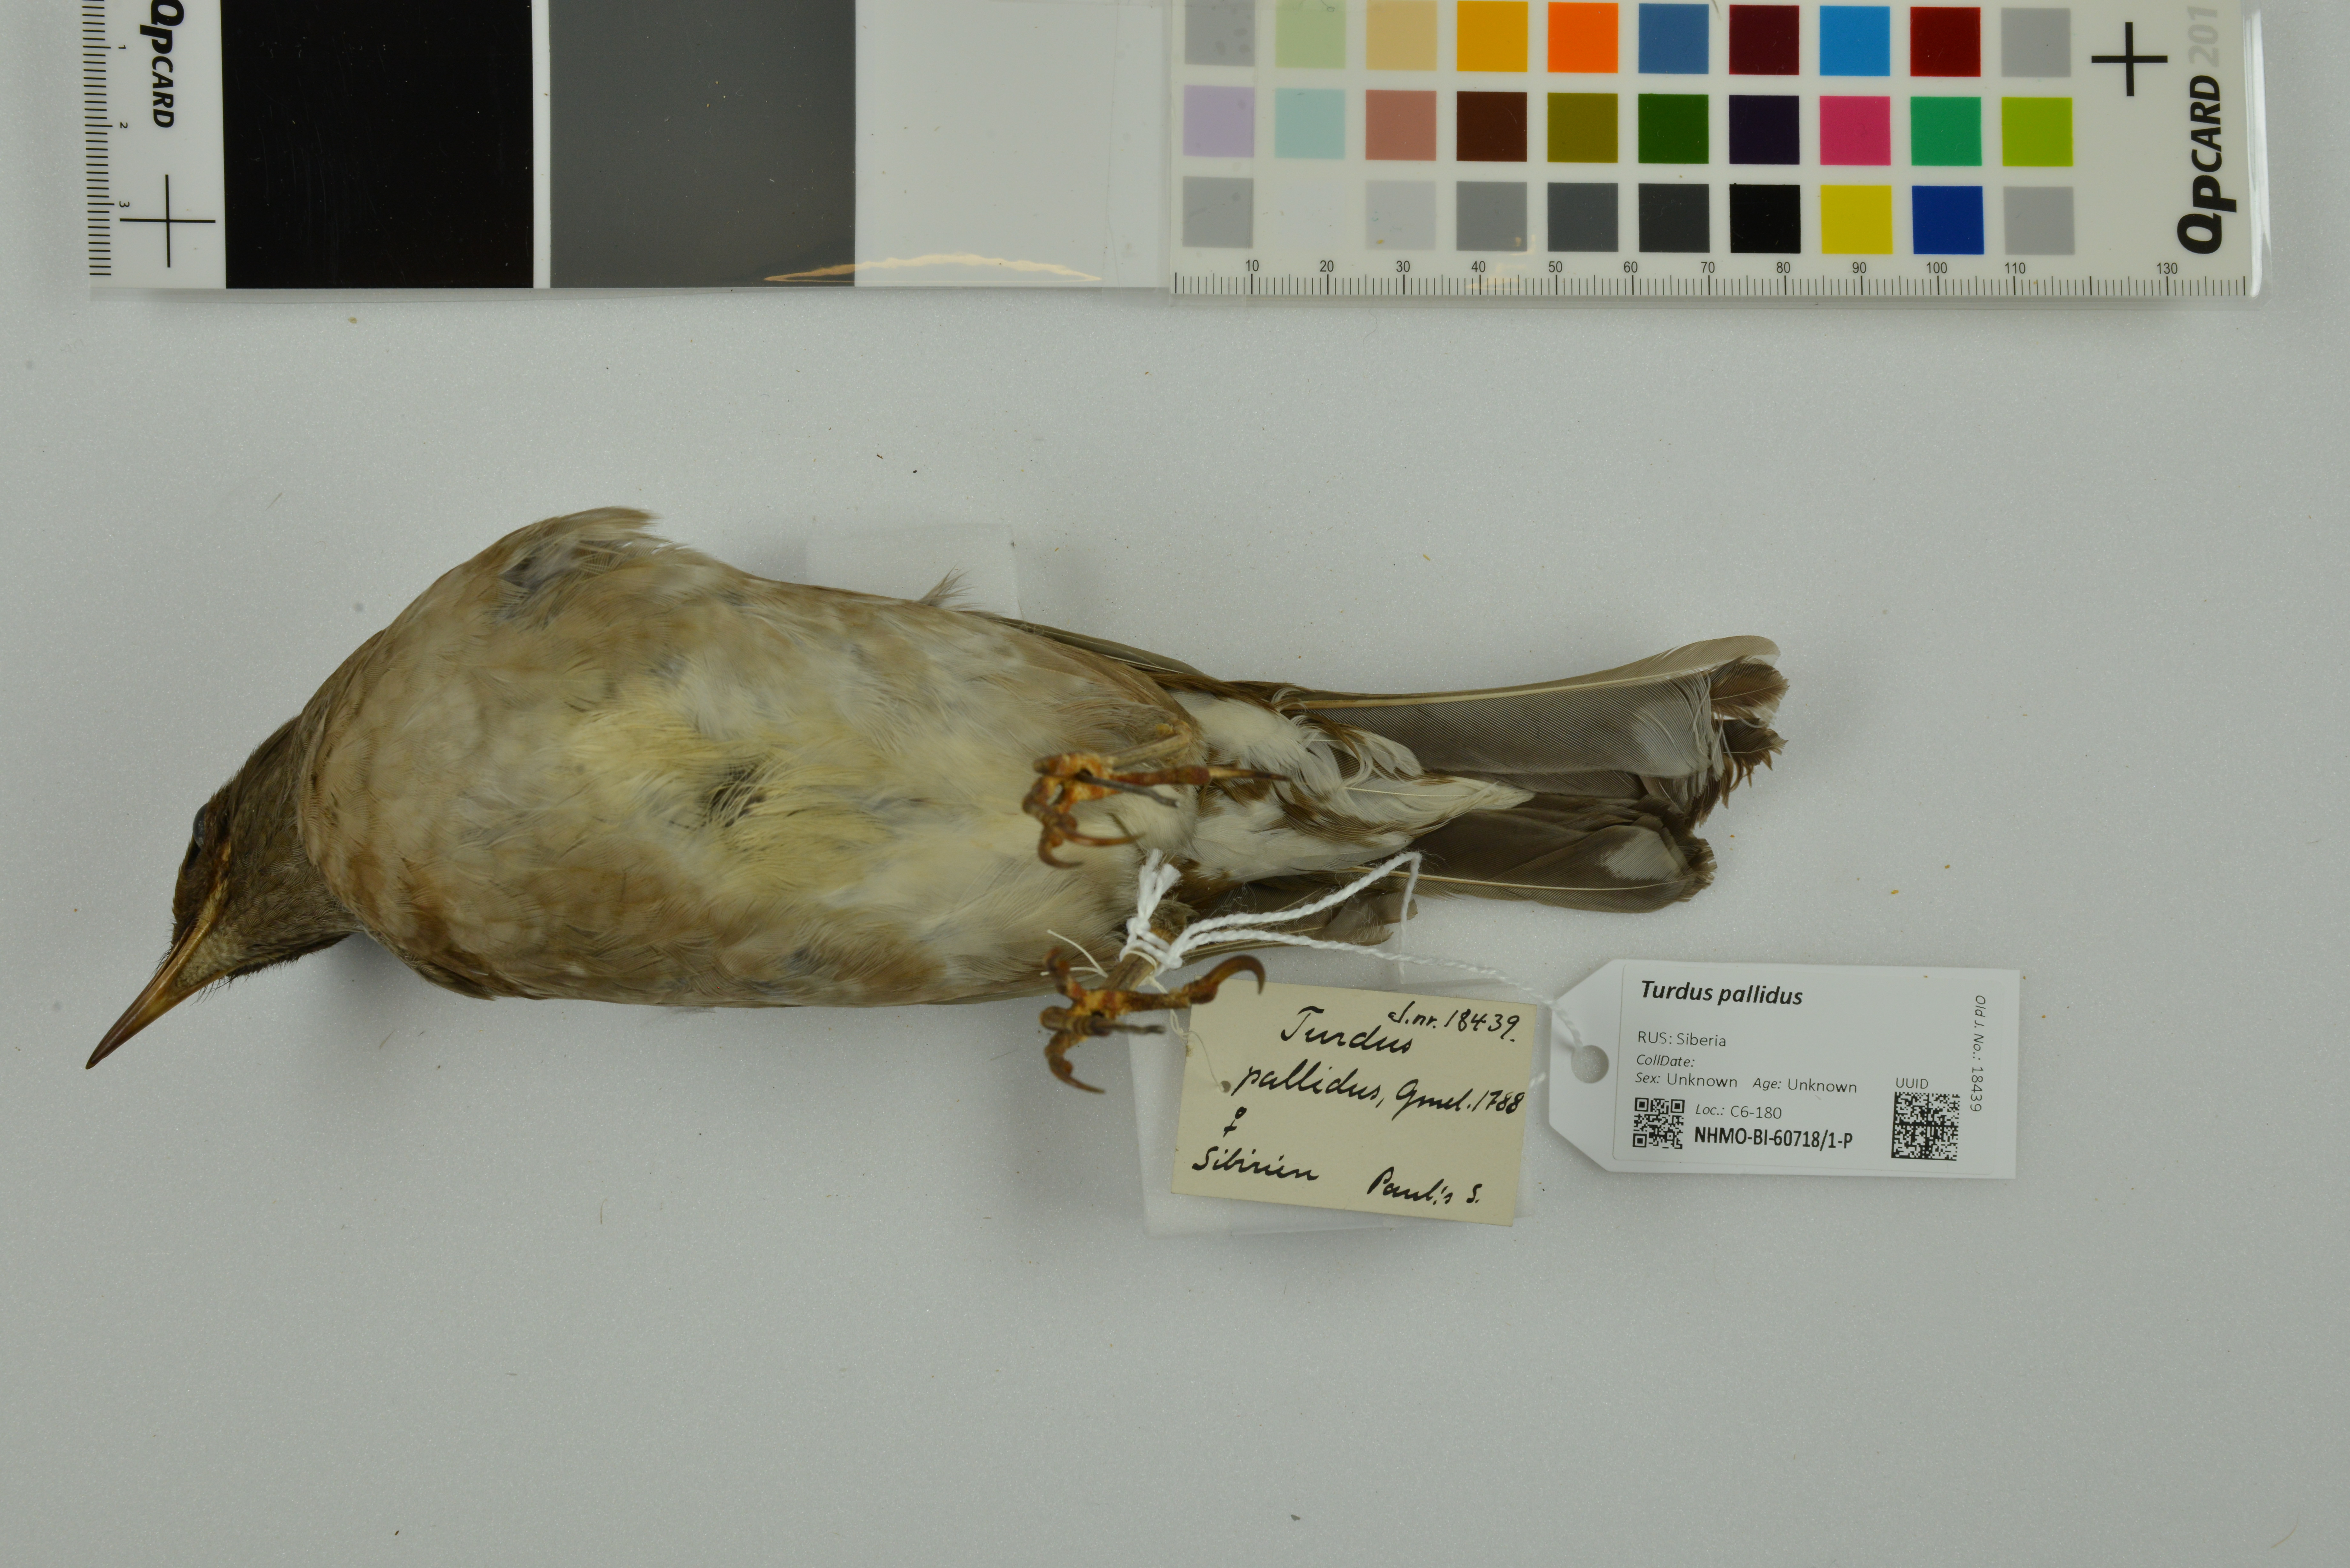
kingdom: Animalia
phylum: Chordata
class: Aves
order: Passeriformes
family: Turdidae
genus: Turdus
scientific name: Turdus pallidus
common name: Pale thrush
